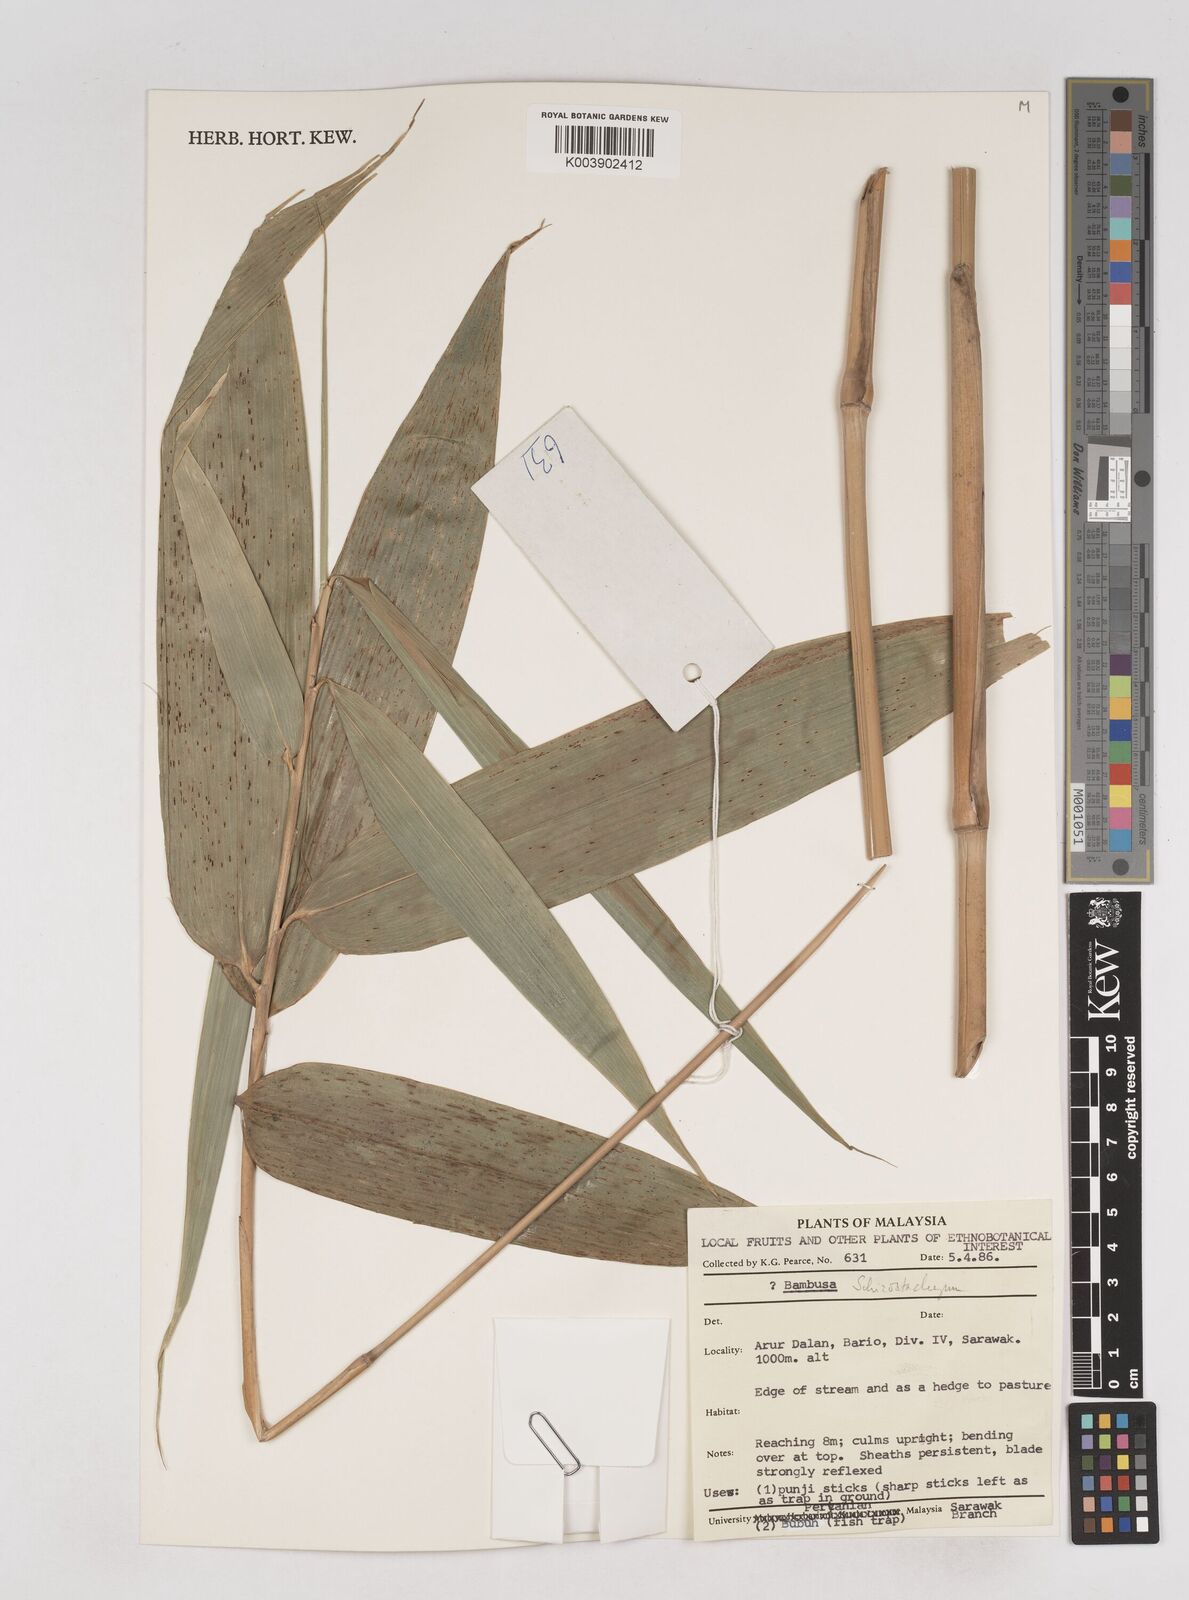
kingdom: Plantae
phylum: Tracheophyta
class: Liliopsida
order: Poales
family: Poaceae
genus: Schizostachyum
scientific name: Schizostachyum
